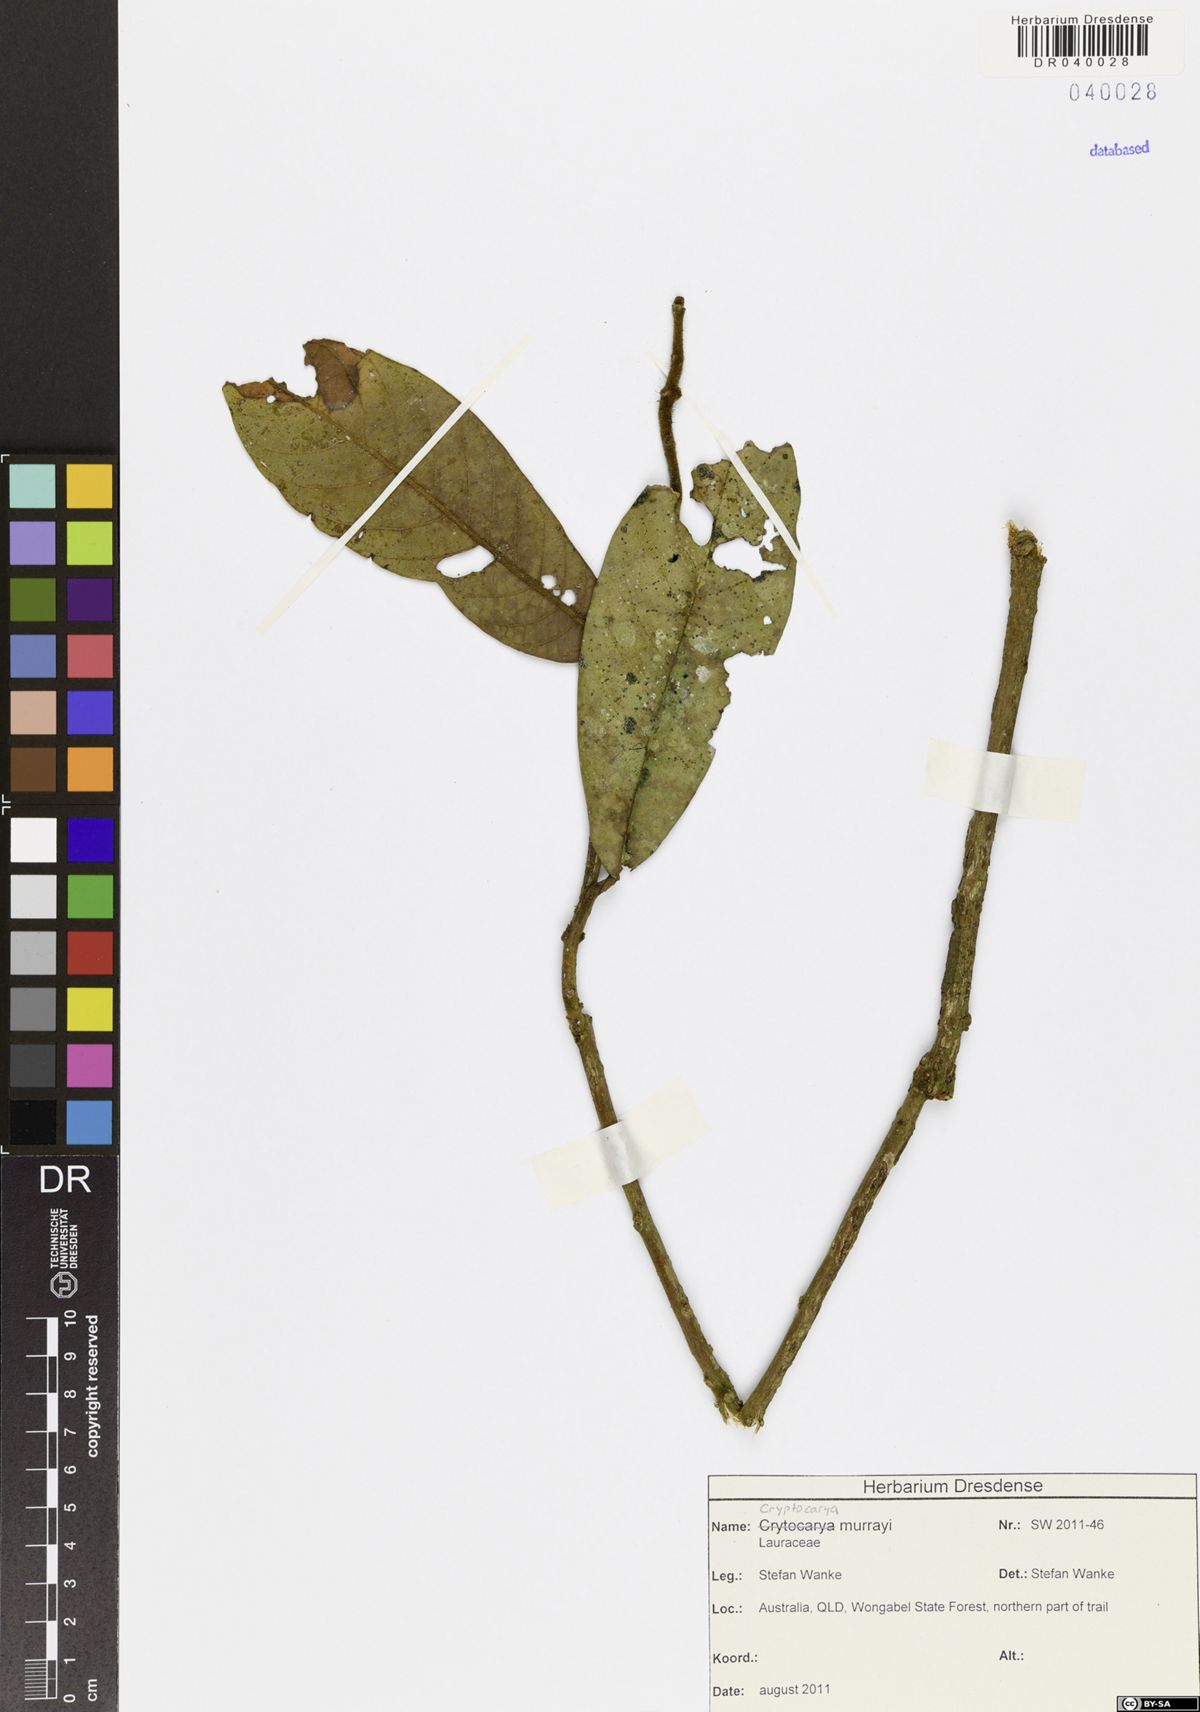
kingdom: Plantae
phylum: Tracheophyta
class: Magnoliopsida
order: Laurales
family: Lauraceae
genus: Cryptocarya
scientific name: Cryptocarya murrayi
